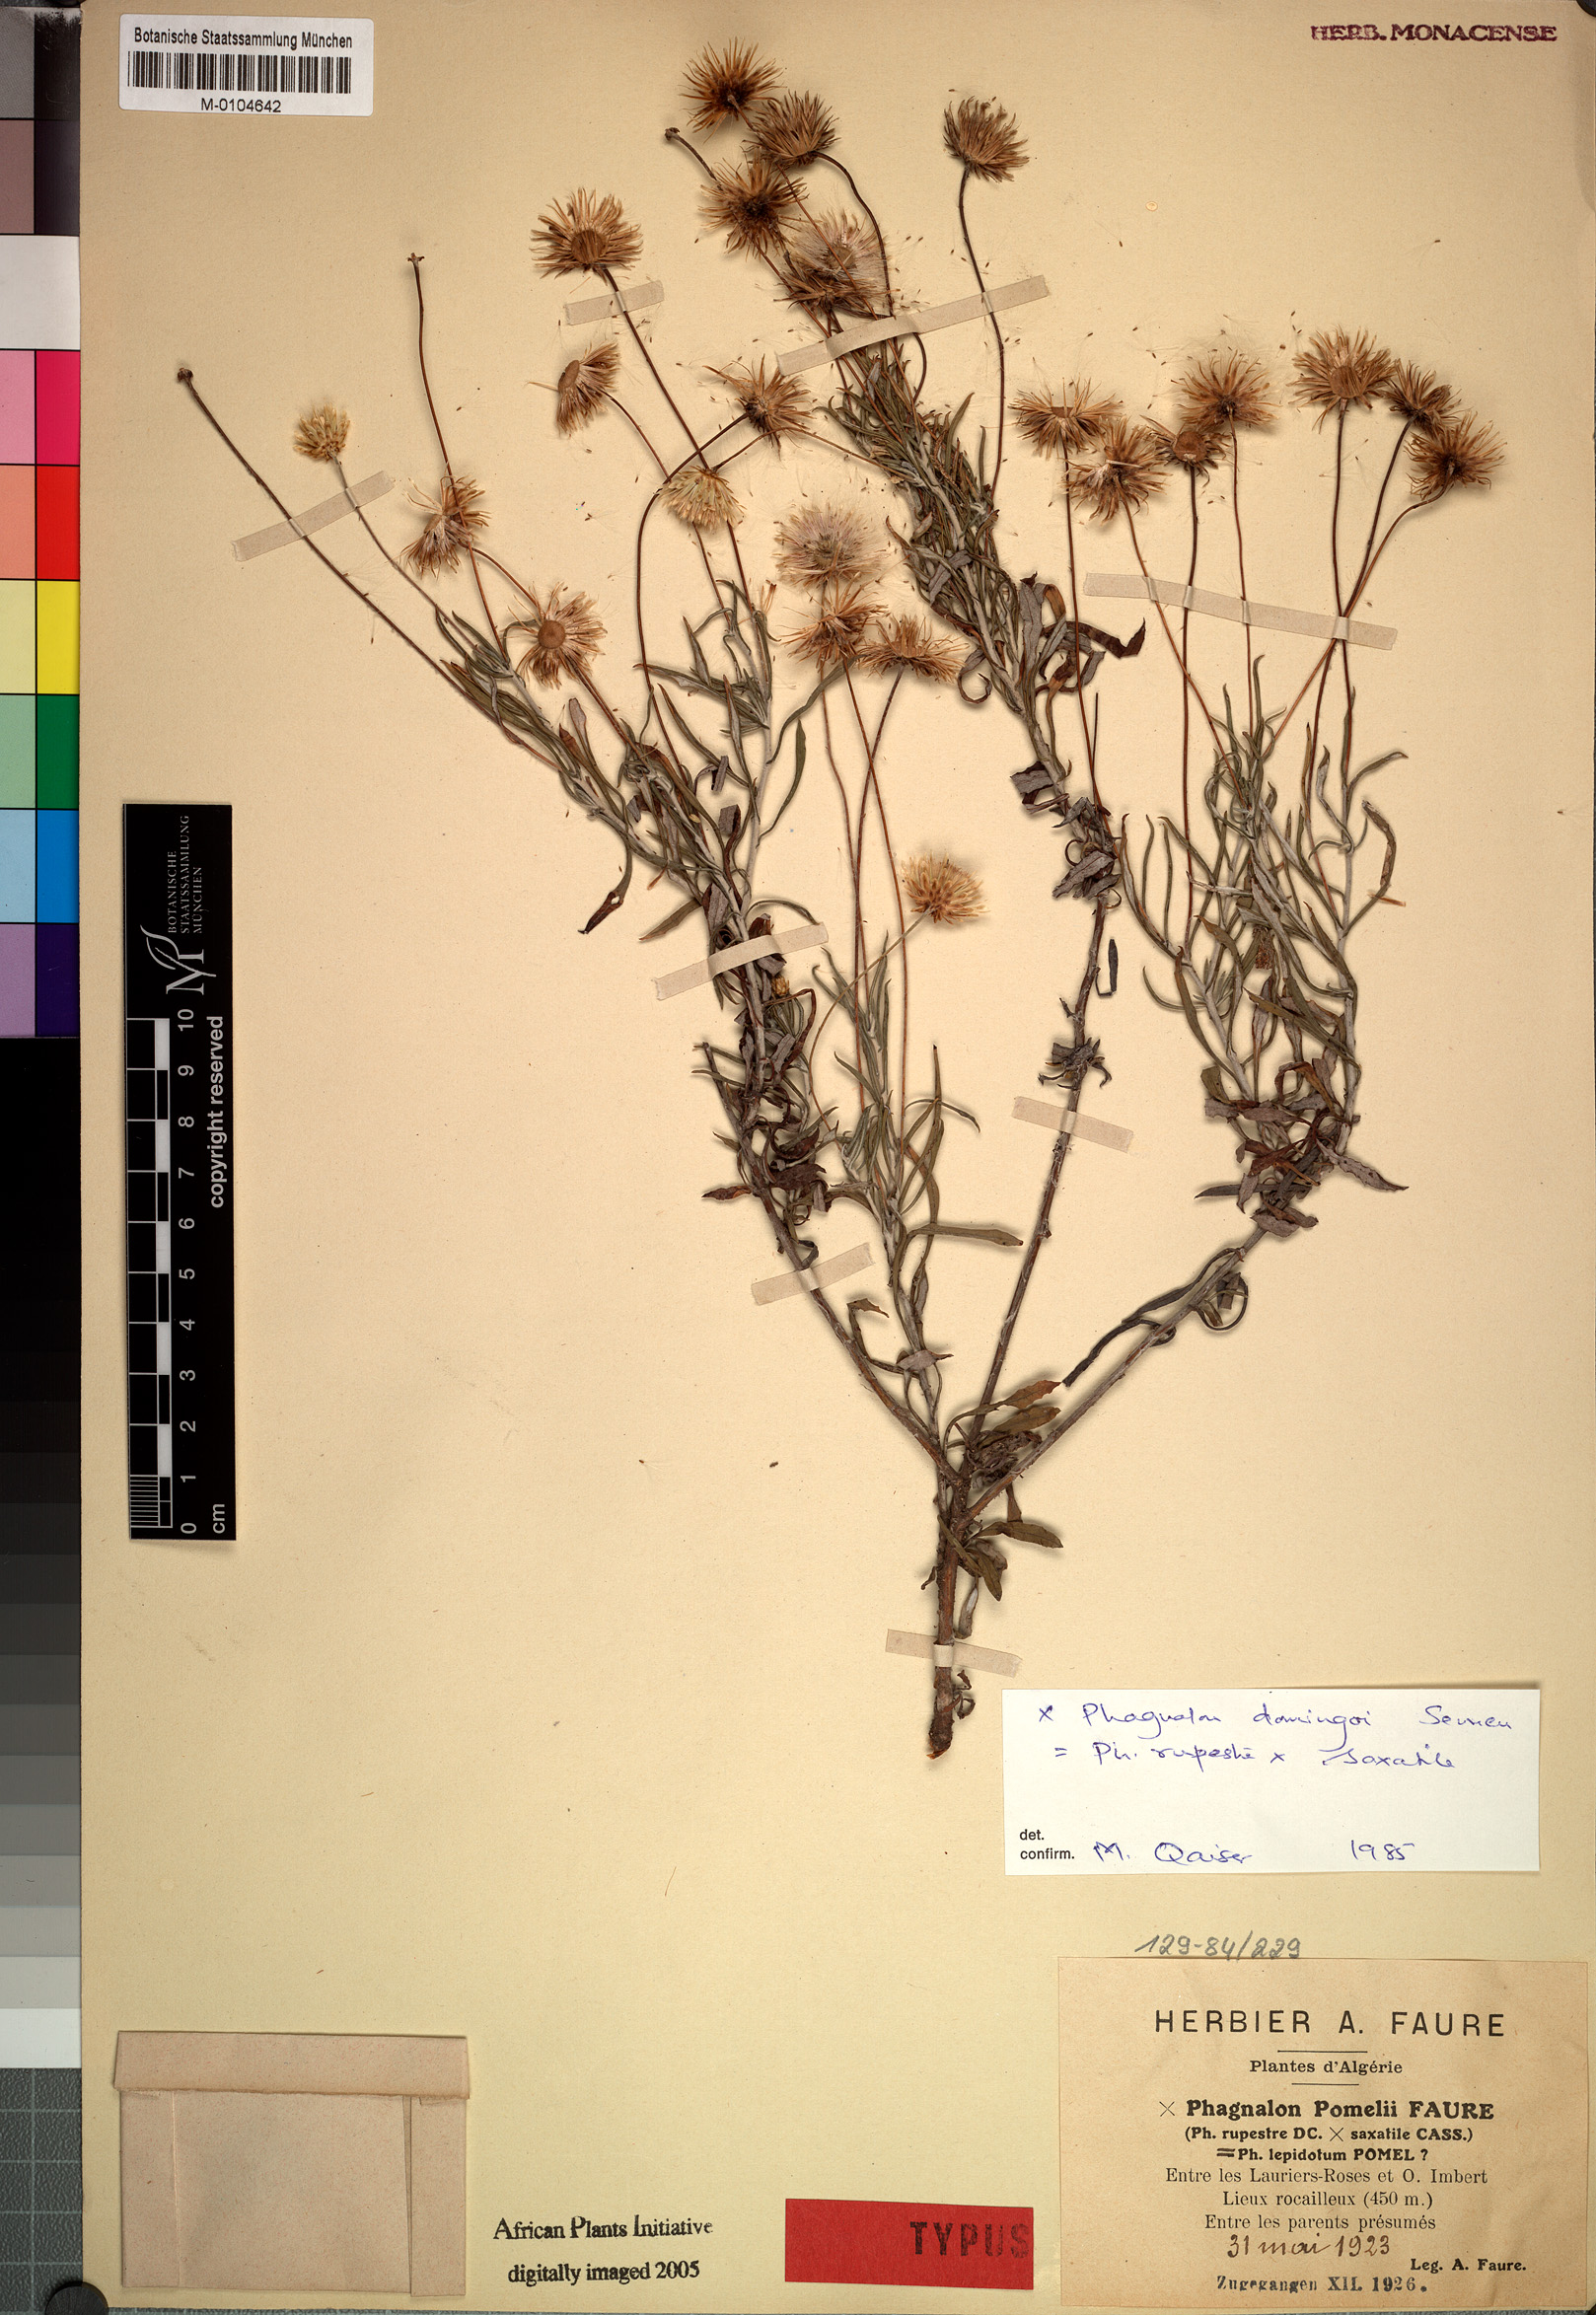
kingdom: Plantae
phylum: Tracheophyta
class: Magnoliopsida
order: Asterales
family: Asteraceae
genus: Phagnalon
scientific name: Phagnalon pomelii
